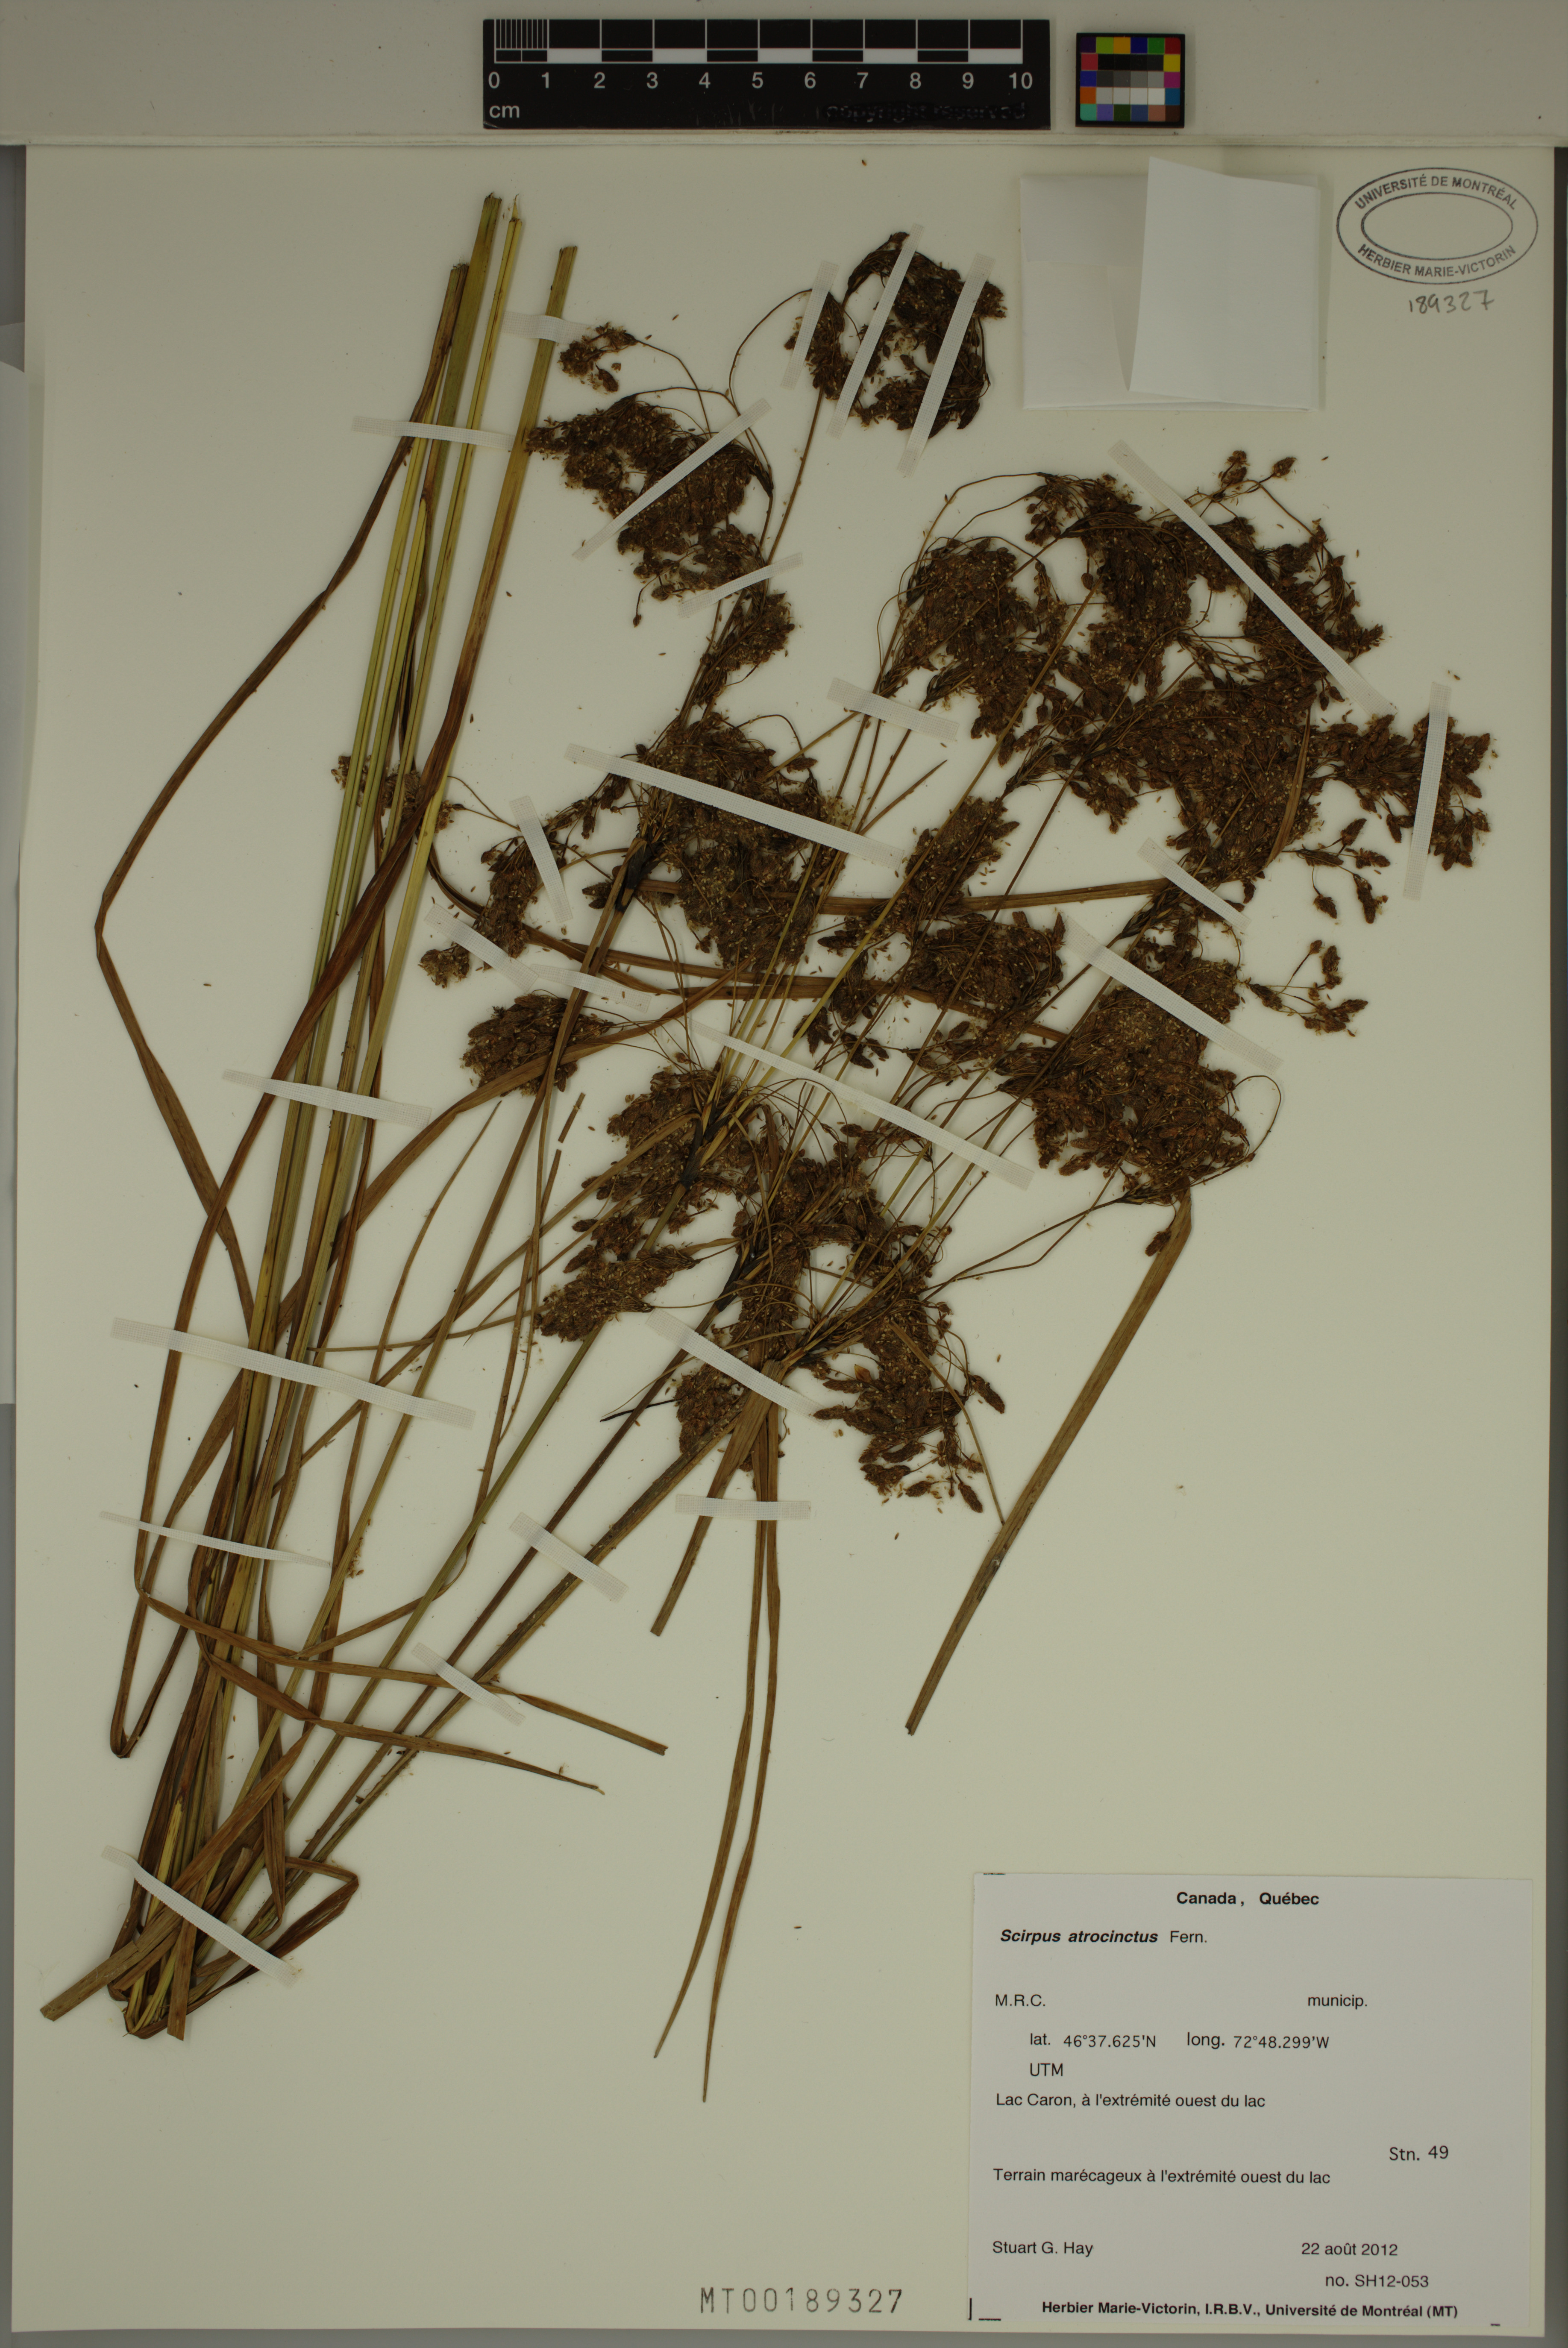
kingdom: Plantae
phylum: Tracheophyta
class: Liliopsida
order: Poales
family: Cyperaceae
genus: Scirpus
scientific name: Scirpus atrocinctus
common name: Black-girdled bulrush
